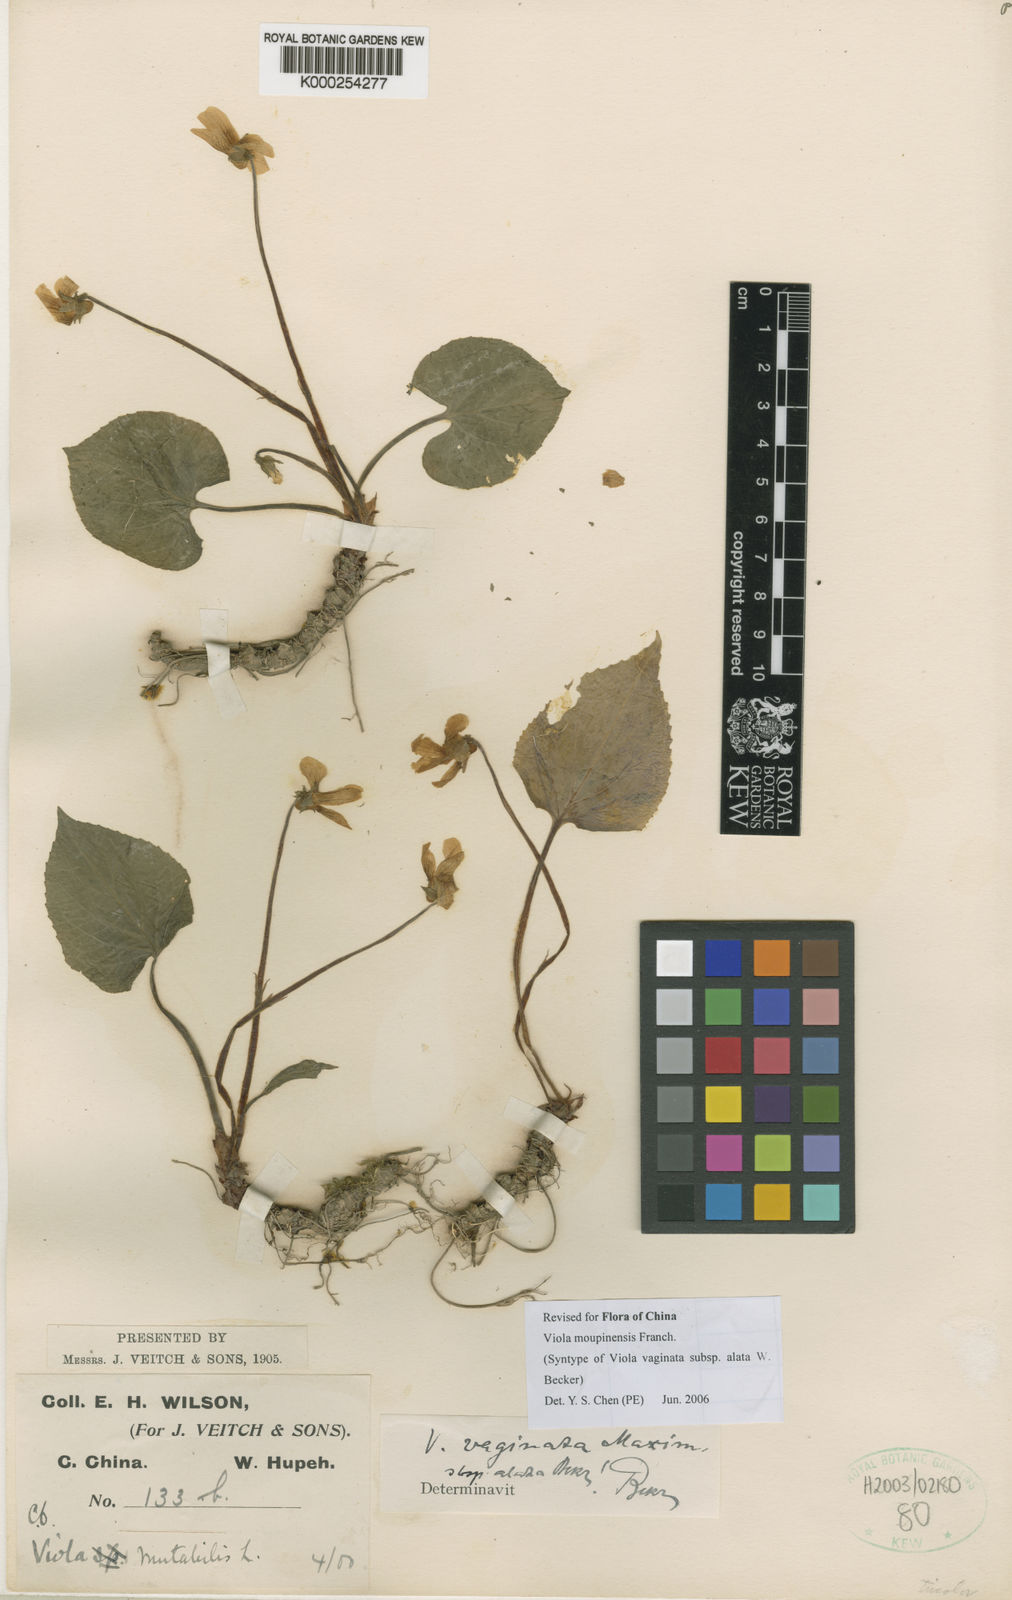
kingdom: Plantae
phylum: Tracheophyta
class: Magnoliopsida
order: Malpighiales
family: Violaceae
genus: Viola
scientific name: Viola vaginata
